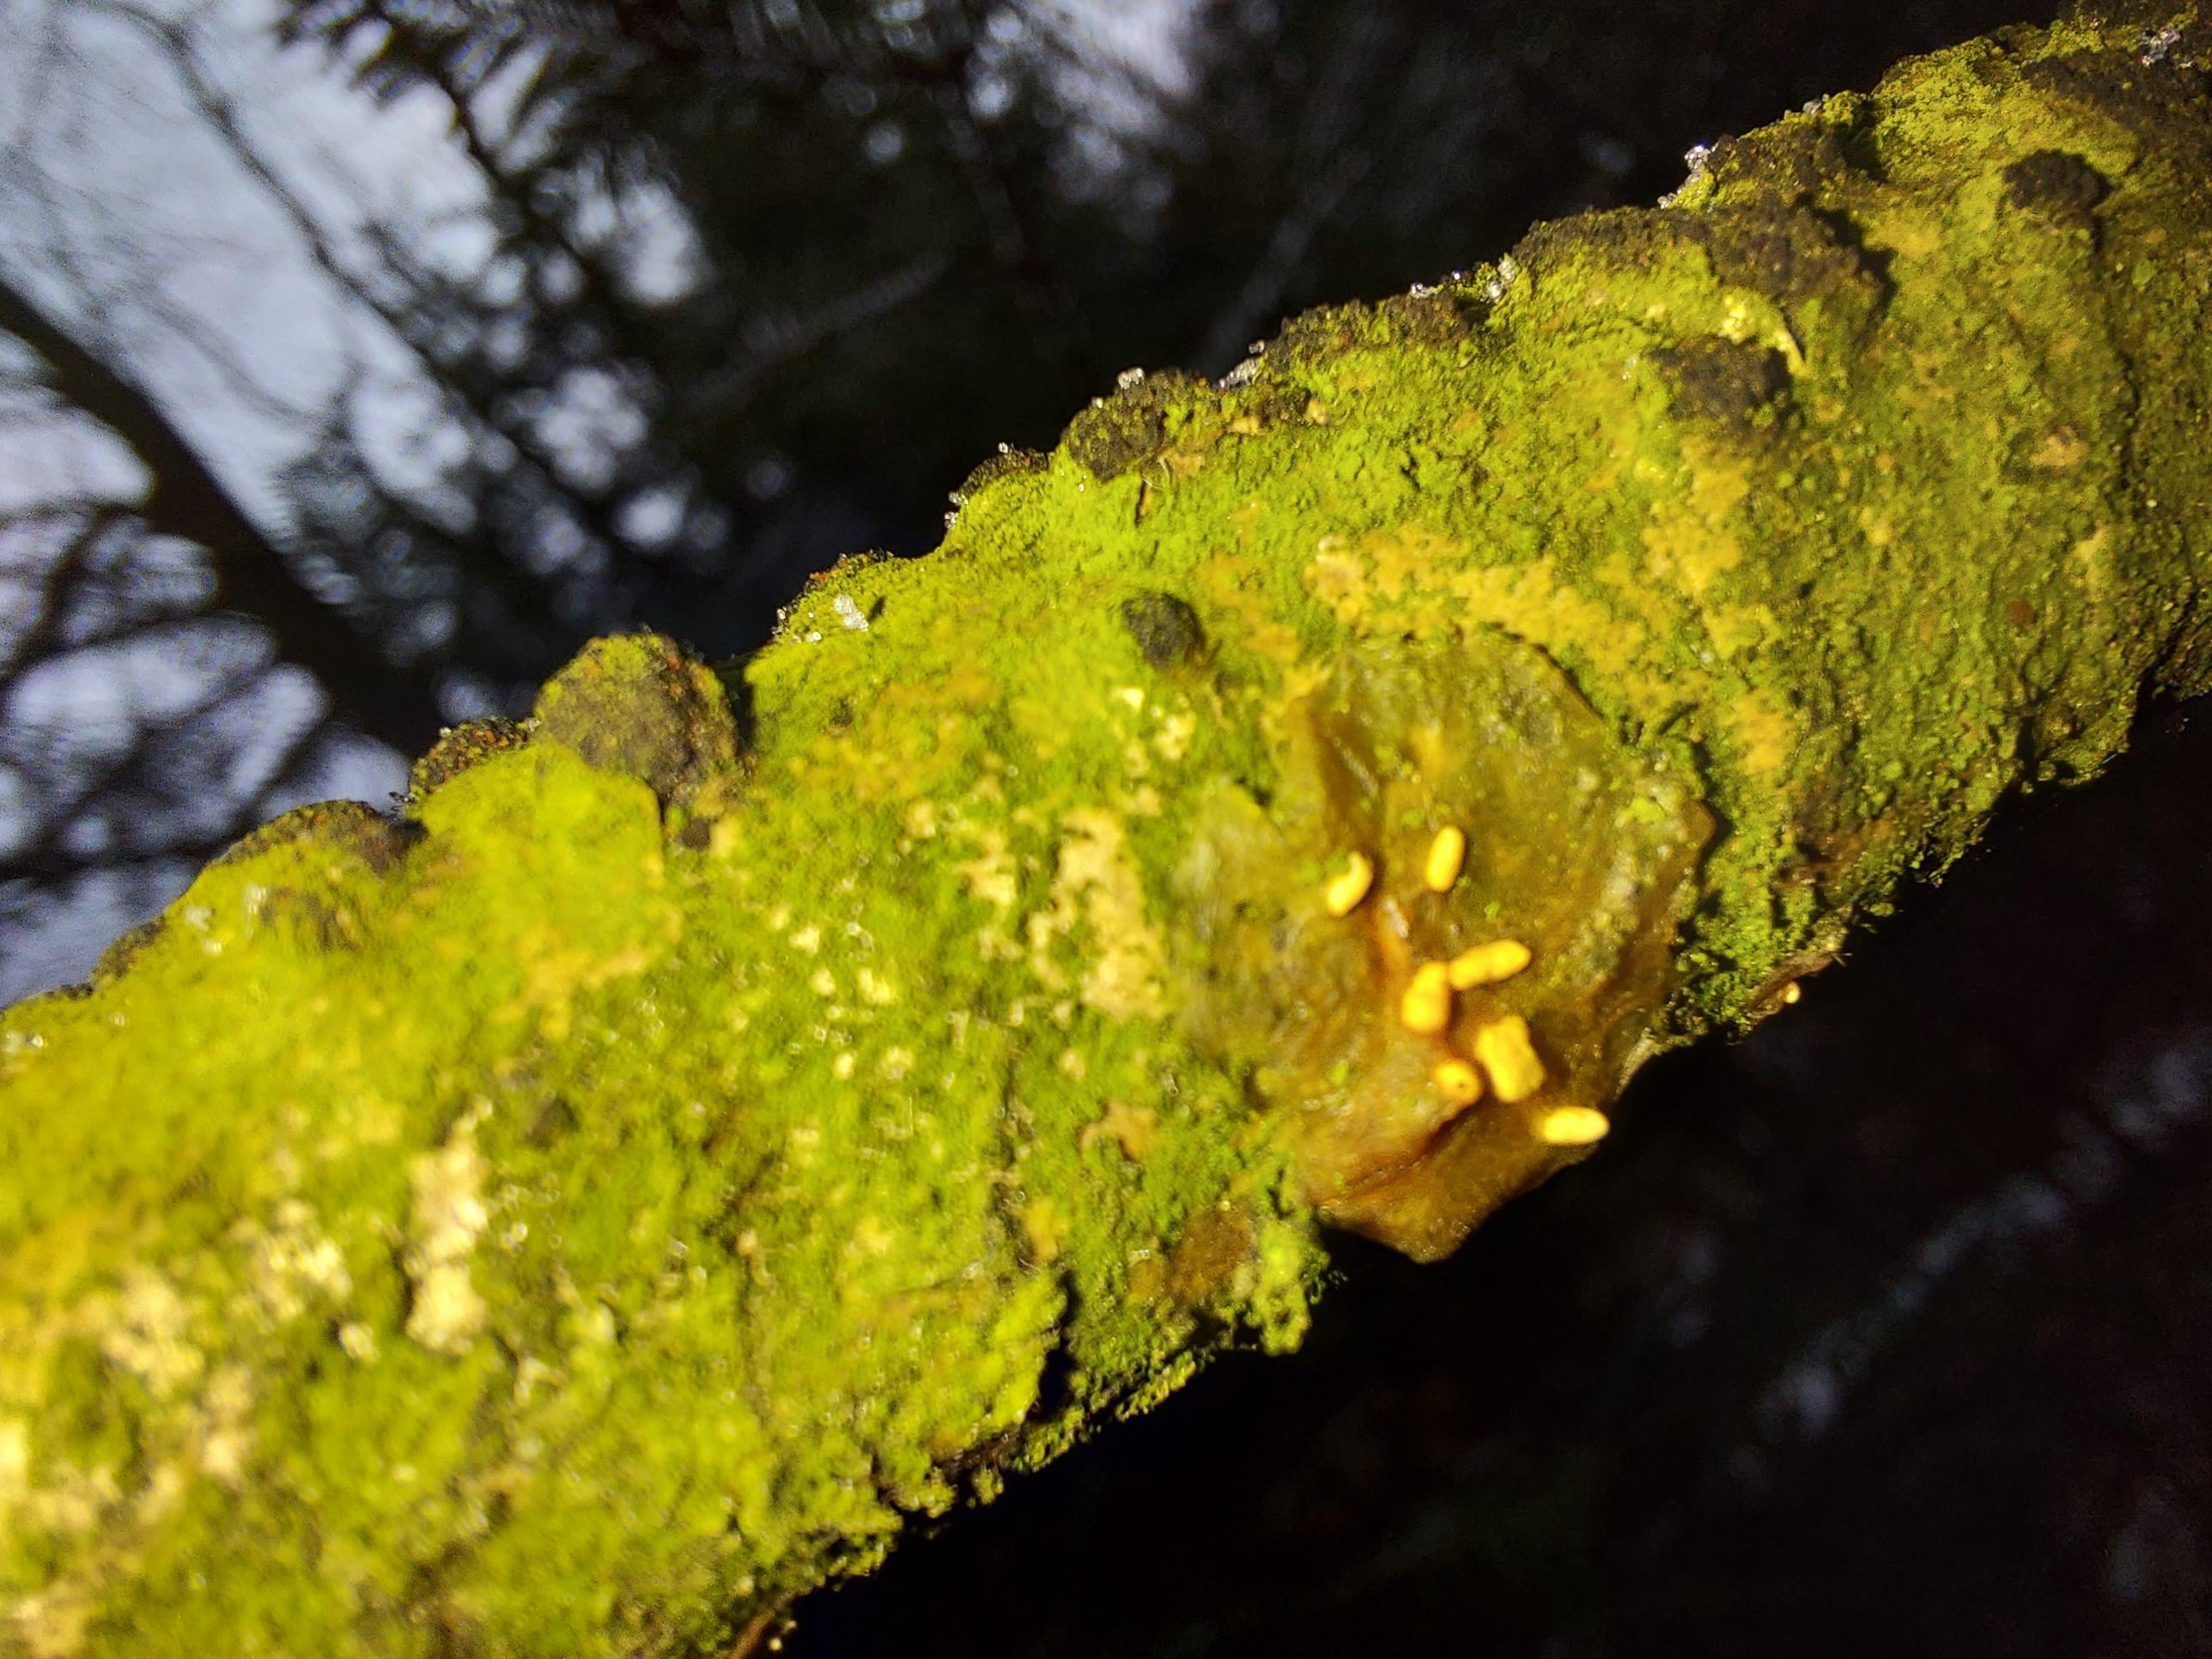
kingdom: Fungi
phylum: Basidiomycota
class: Agaricomycetes
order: Auriculariales
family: Hyaloriaceae
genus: Myxarium
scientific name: Myxarium
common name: bævretop
